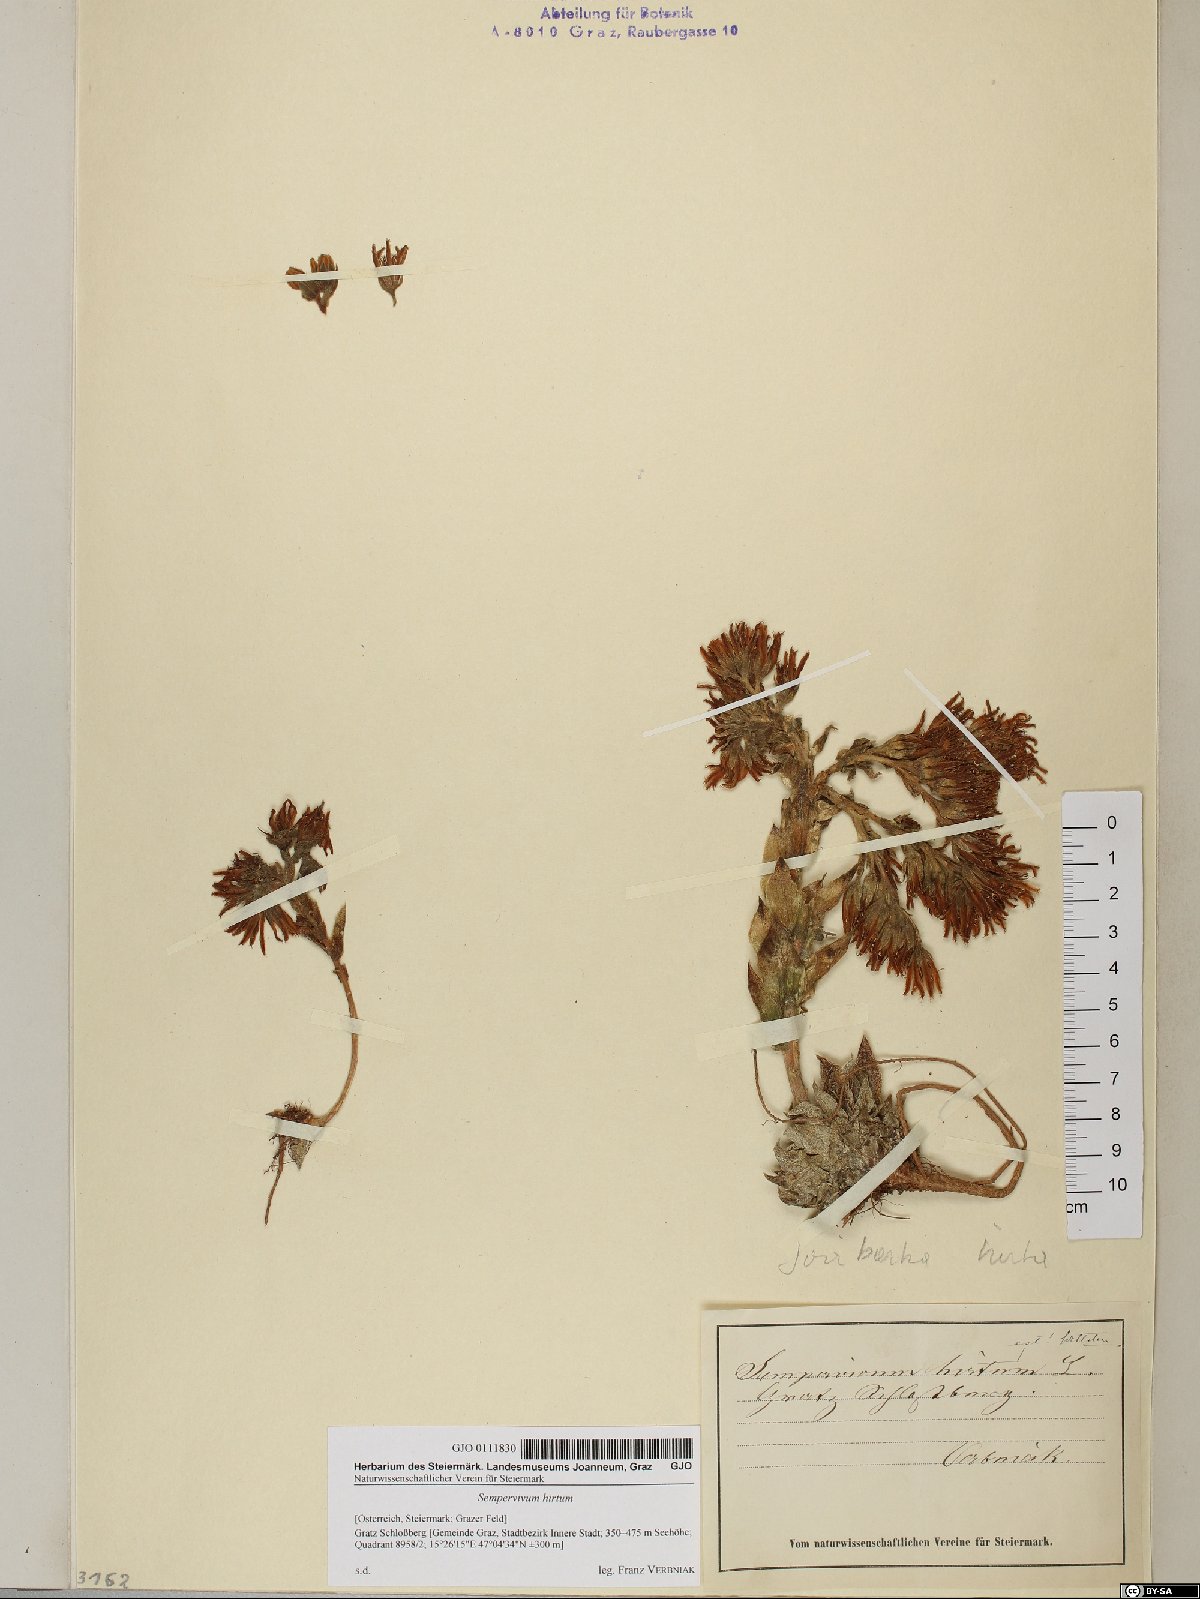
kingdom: Plantae
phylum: Tracheophyta
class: Magnoliopsida
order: Saxifragales
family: Crassulaceae
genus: Sempervivum
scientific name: Sempervivum globiferum
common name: Rolling hen-and-chicks
